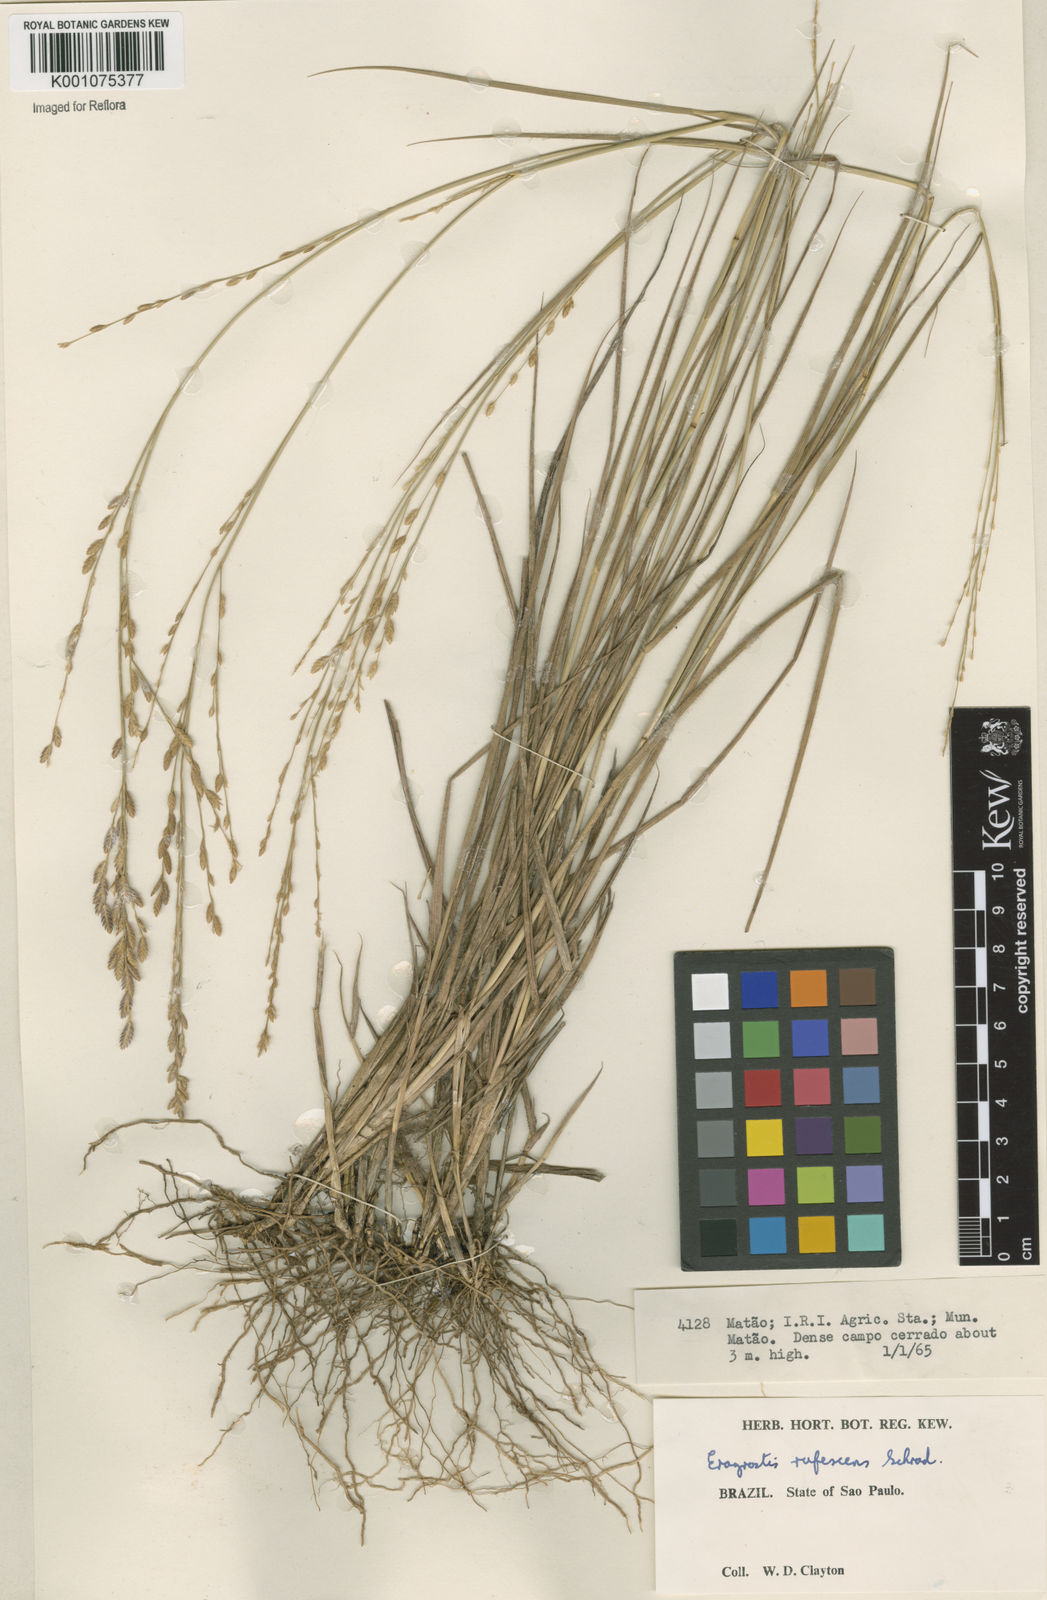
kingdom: Plantae
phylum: Tracheophyta
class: Liliopsida
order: Poales
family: Poaceae
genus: Eragrostis
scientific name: Eragrostis solida
